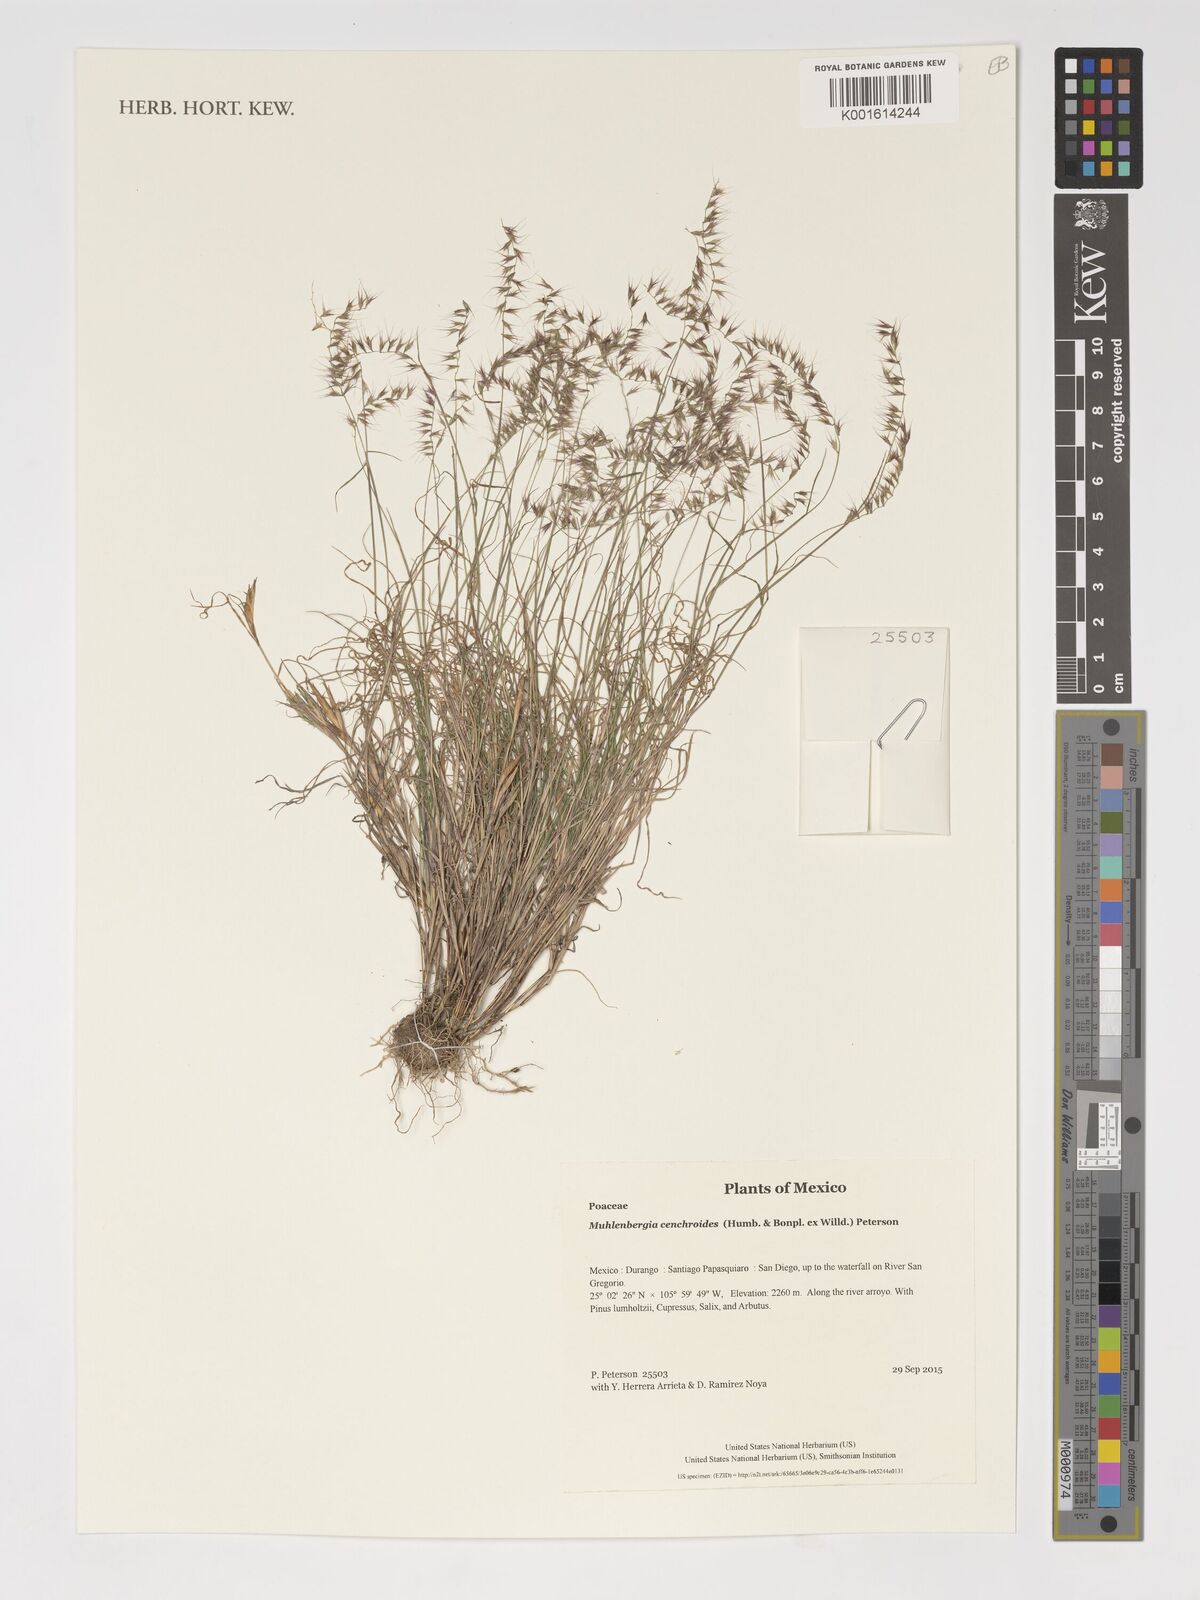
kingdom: Plantae
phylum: Tracheophyta
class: Liliopsida
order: Poales
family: Poaceae
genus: Muhlenbergia
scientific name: Muhlenbergia cenchroides
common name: Relaxgrass
